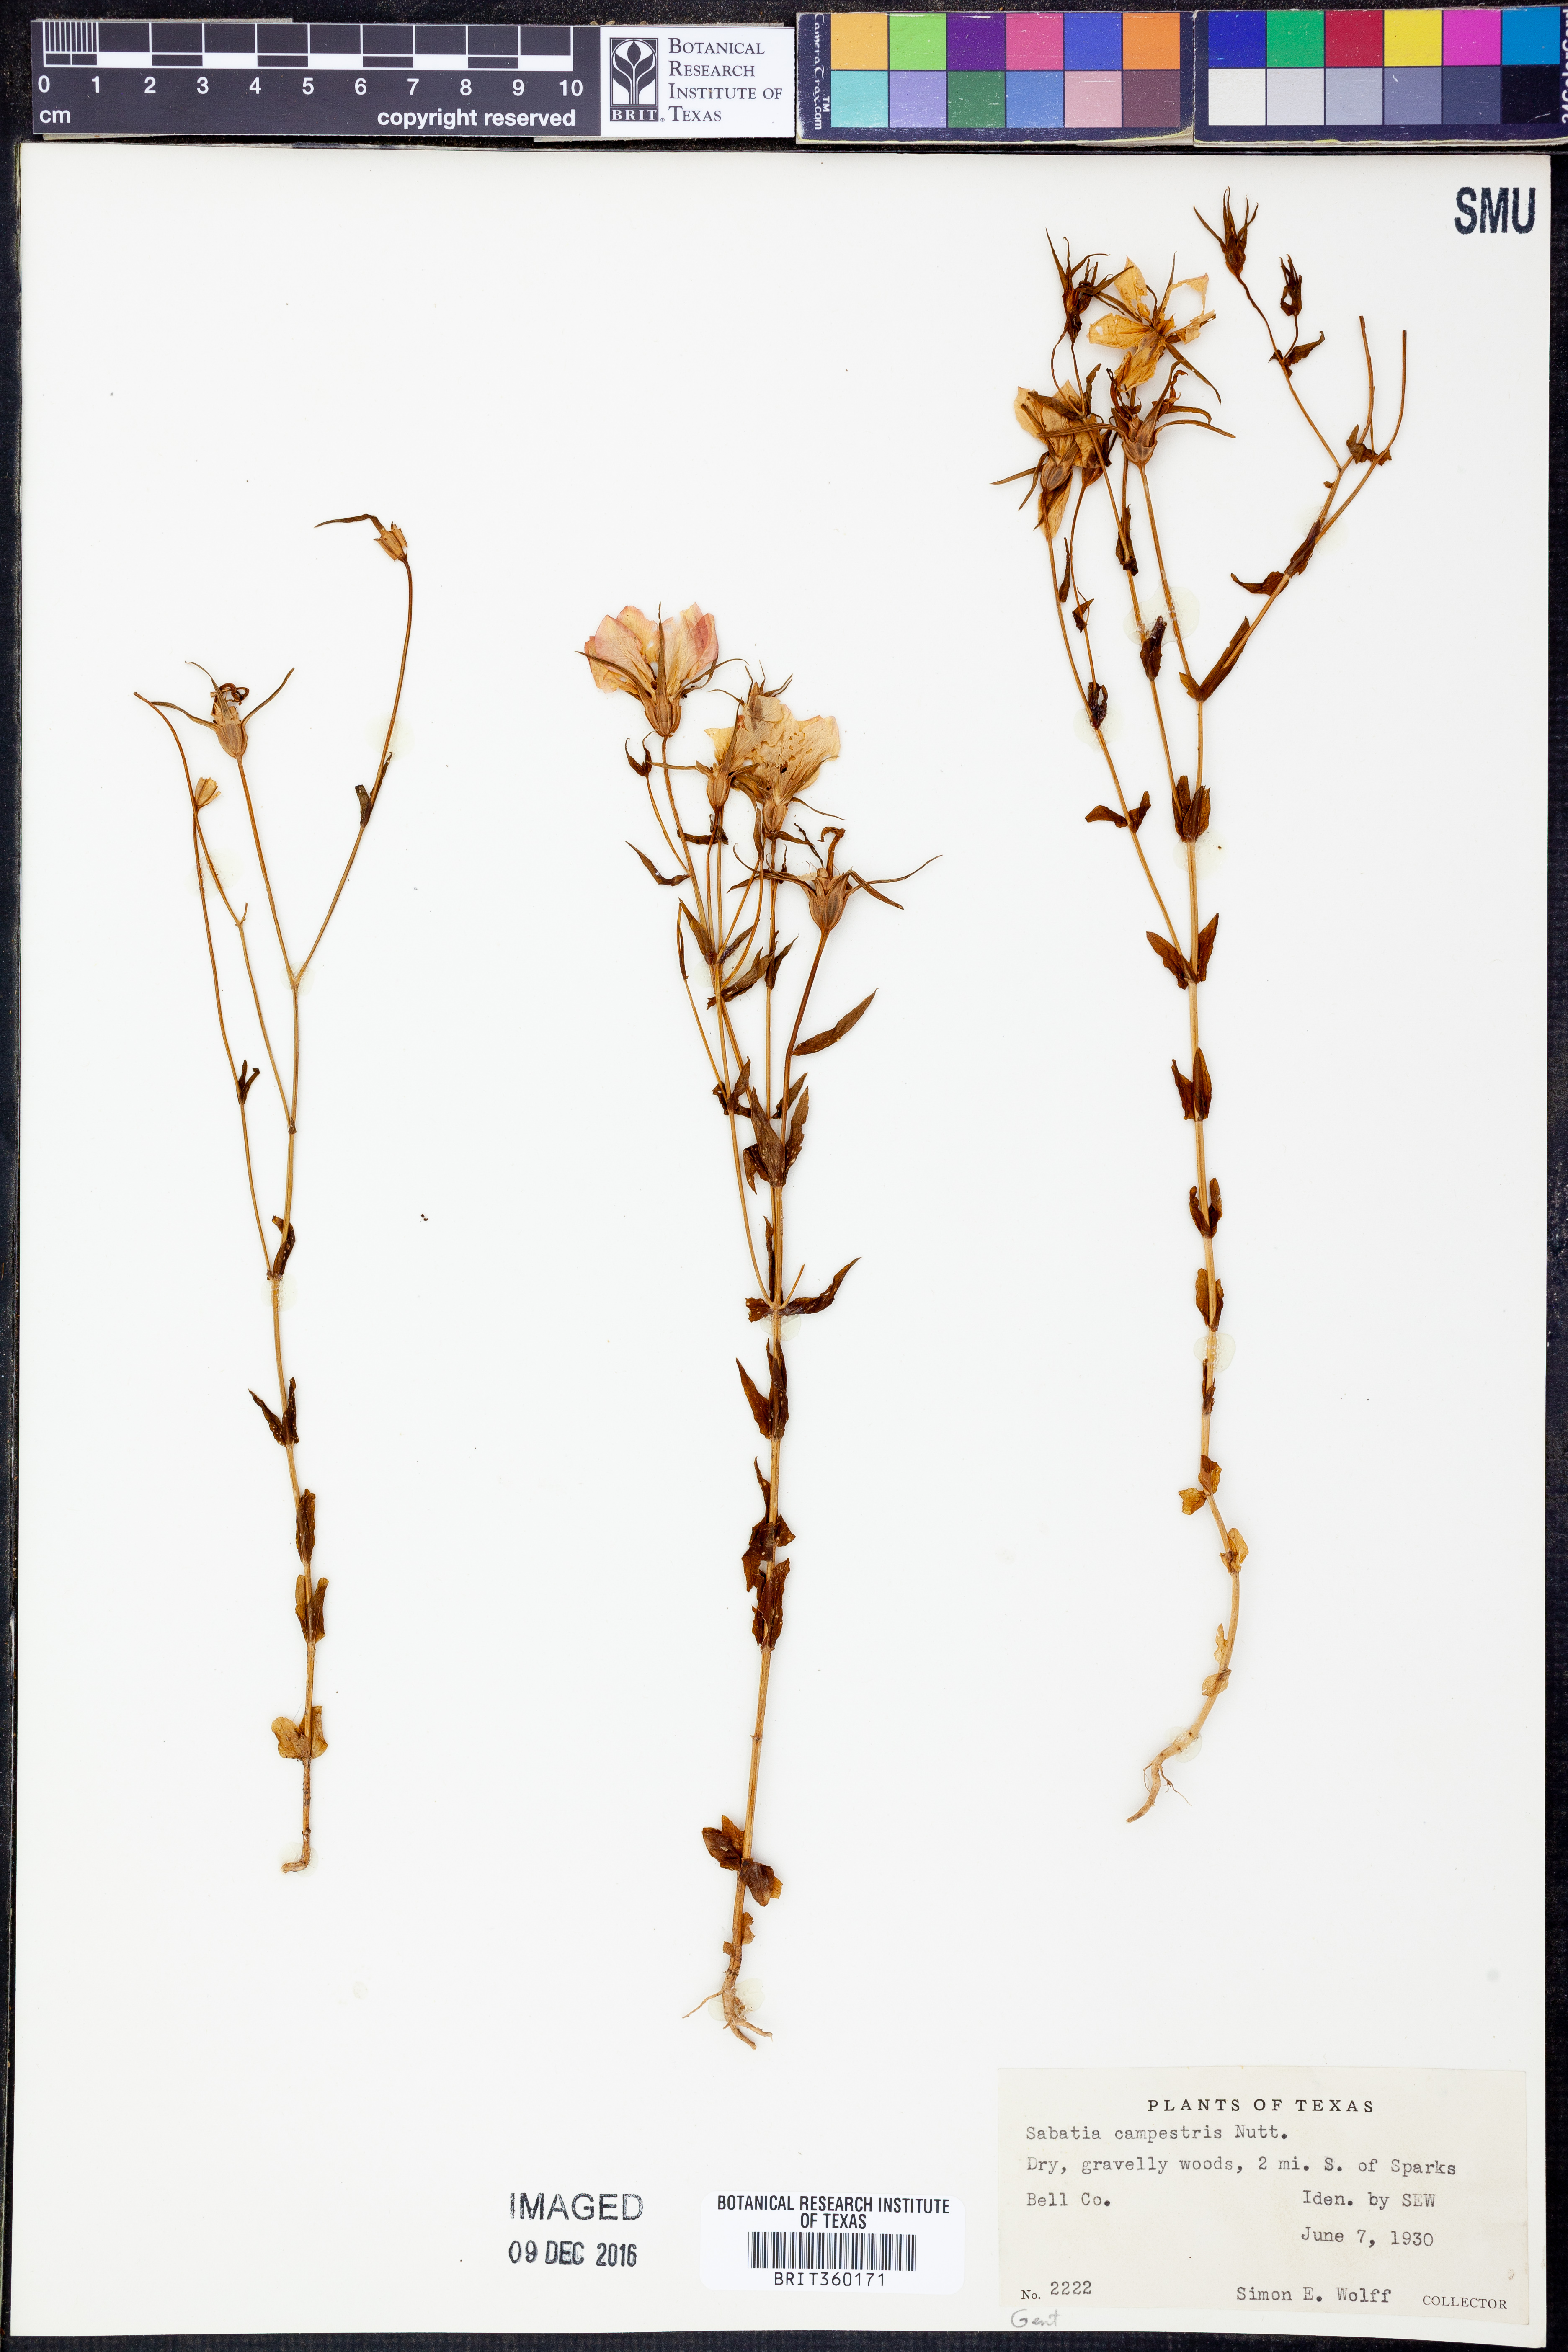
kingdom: Plantae
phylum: Tracheophyta
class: Magnoliopsida
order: Gentianales
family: Gentianaceae
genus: Sabatia
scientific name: Sabatia campestris
